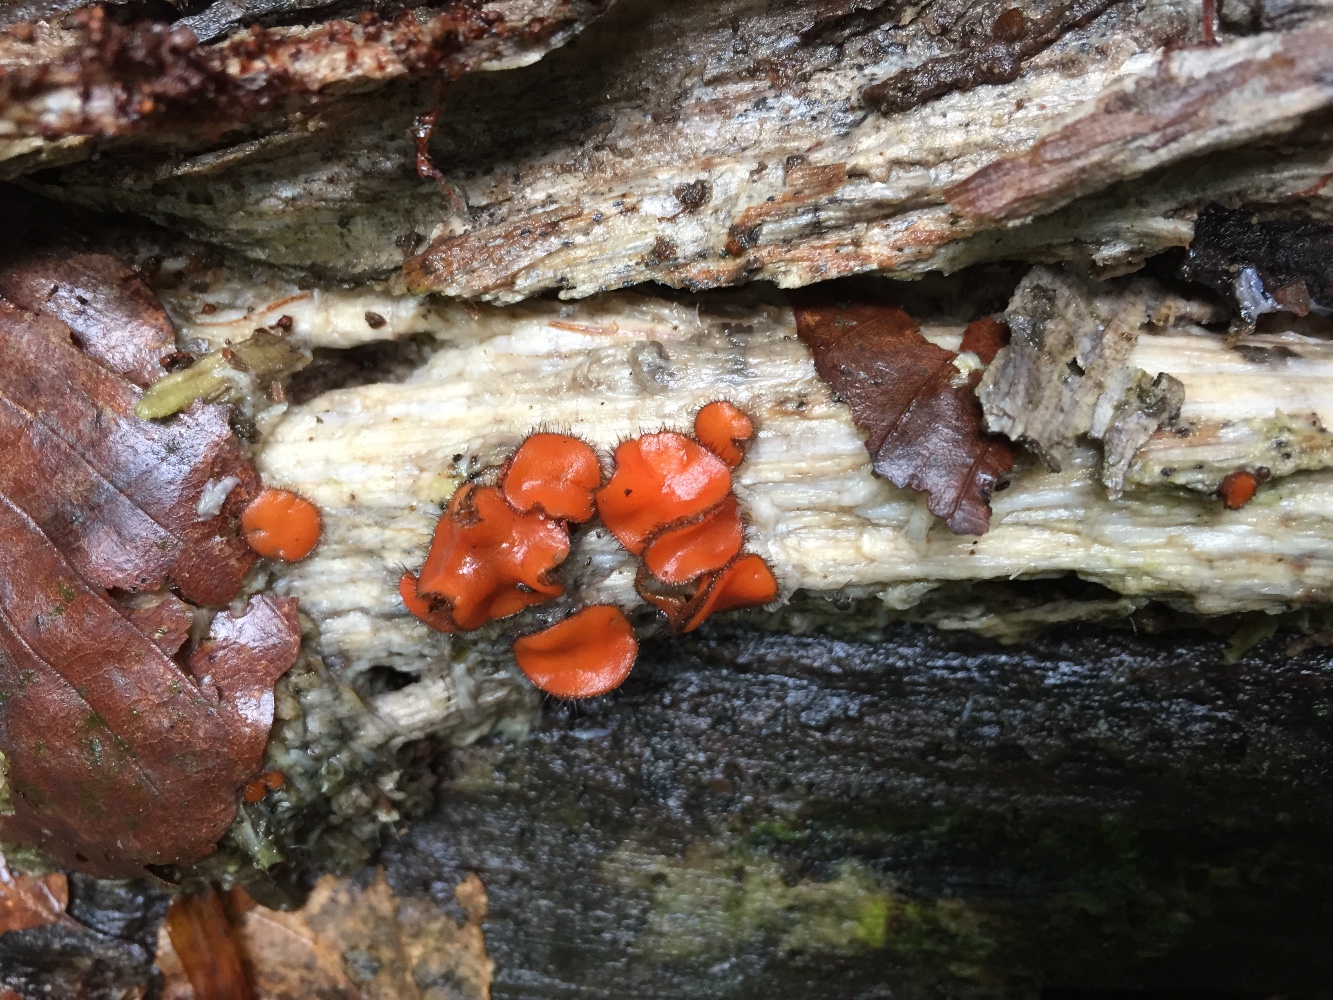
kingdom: Fungi
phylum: Ascomycota
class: Pezizomycetes
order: Pezizales
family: Pyronemataceae
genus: Scutellinia
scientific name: Scutellinia scutellata
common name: frynset skjoldbæger
